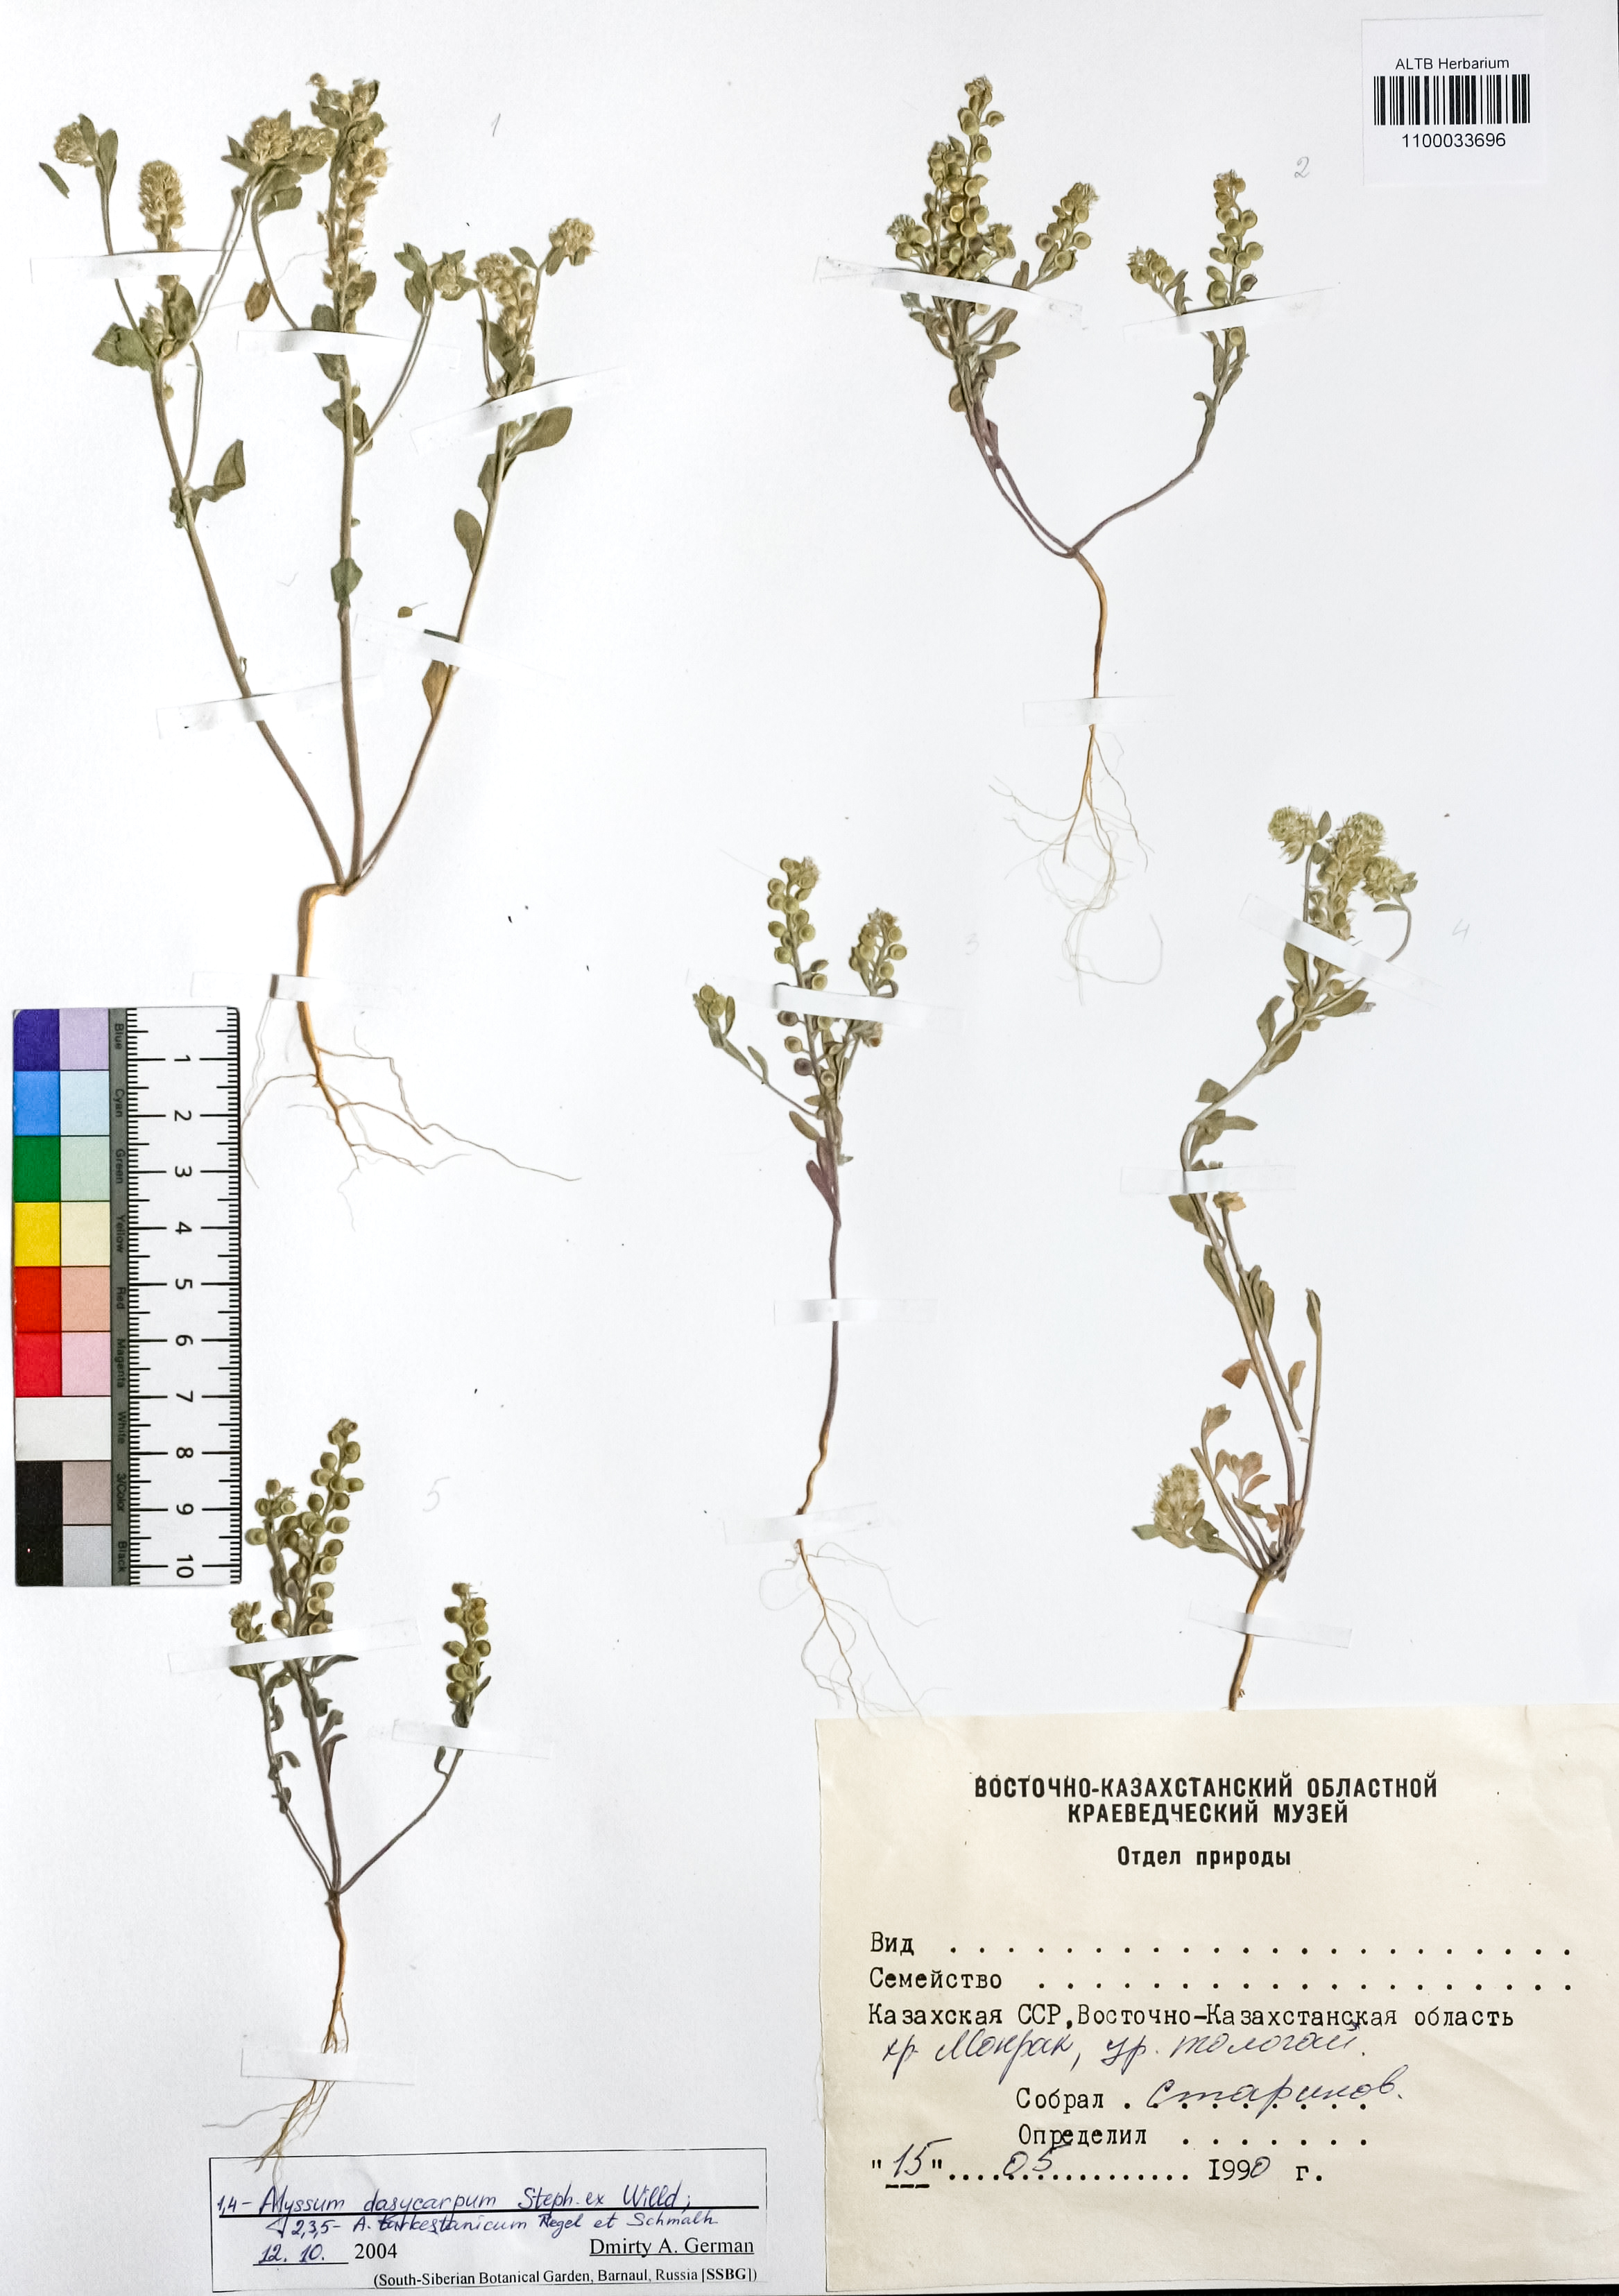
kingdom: Plantae
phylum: Tracheophyta
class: Magnoliopsida
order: Brassicales
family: Brassicaceae
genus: Alyssum
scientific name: Alyssum dasycarpum
